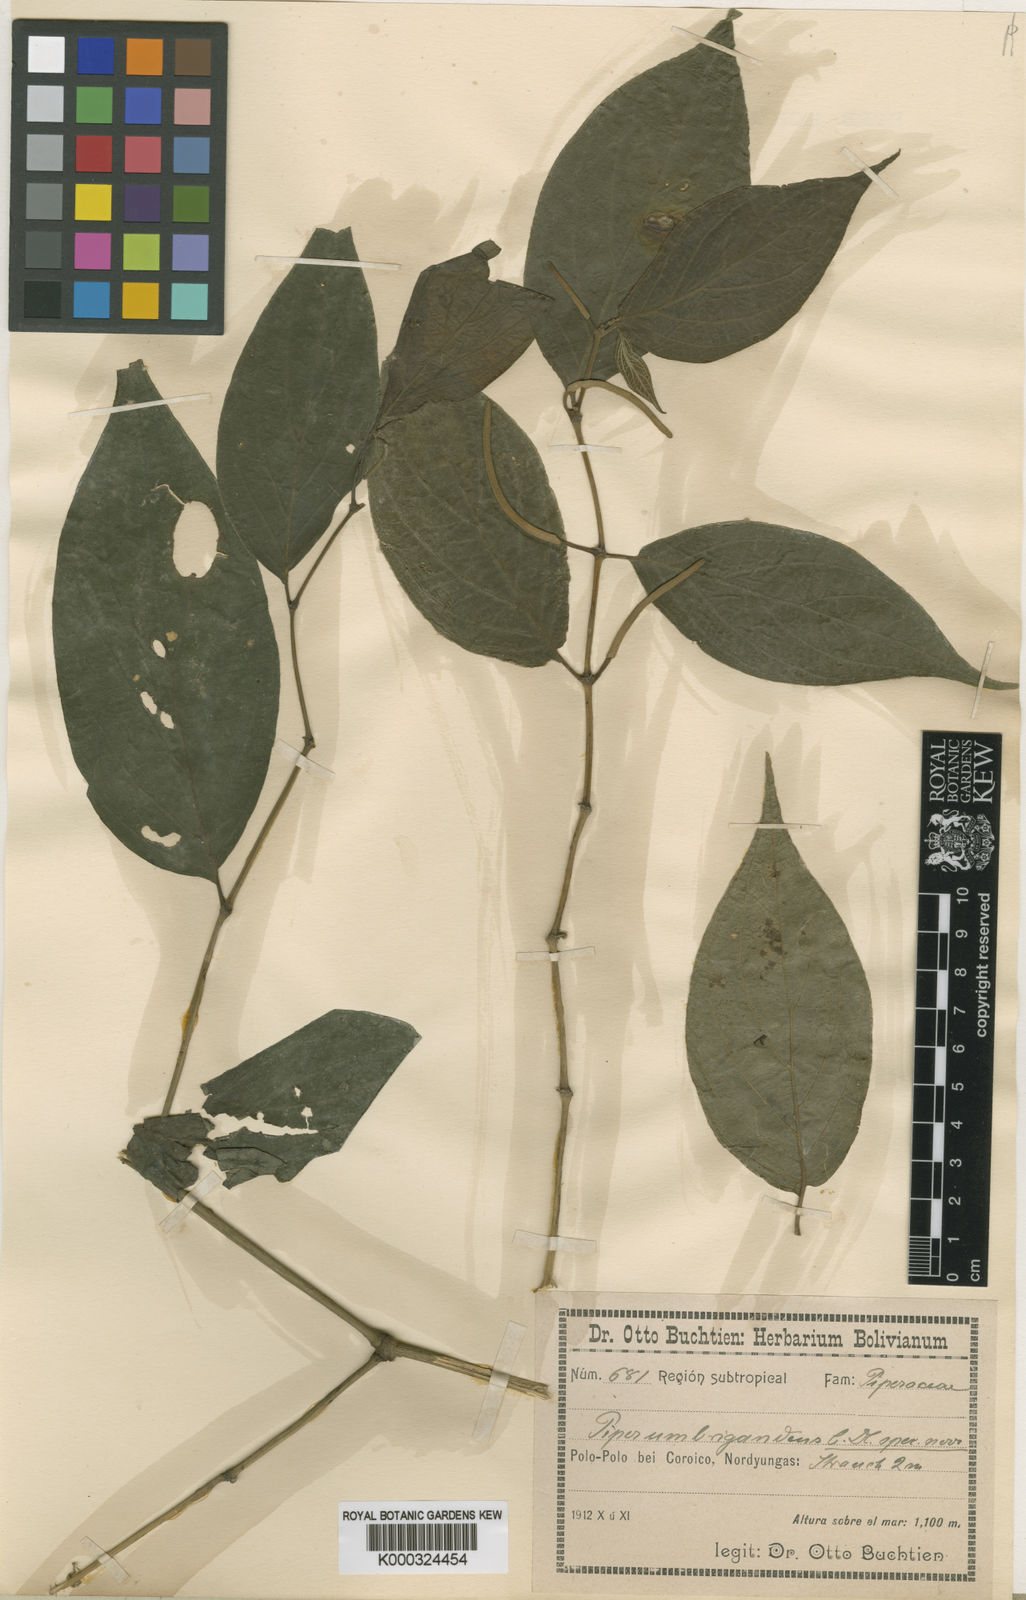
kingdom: Plantae
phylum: Tracheophyta
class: Magnoliopsida
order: Piperales
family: Piperaceae
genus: Piper
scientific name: Piper rusbyi
